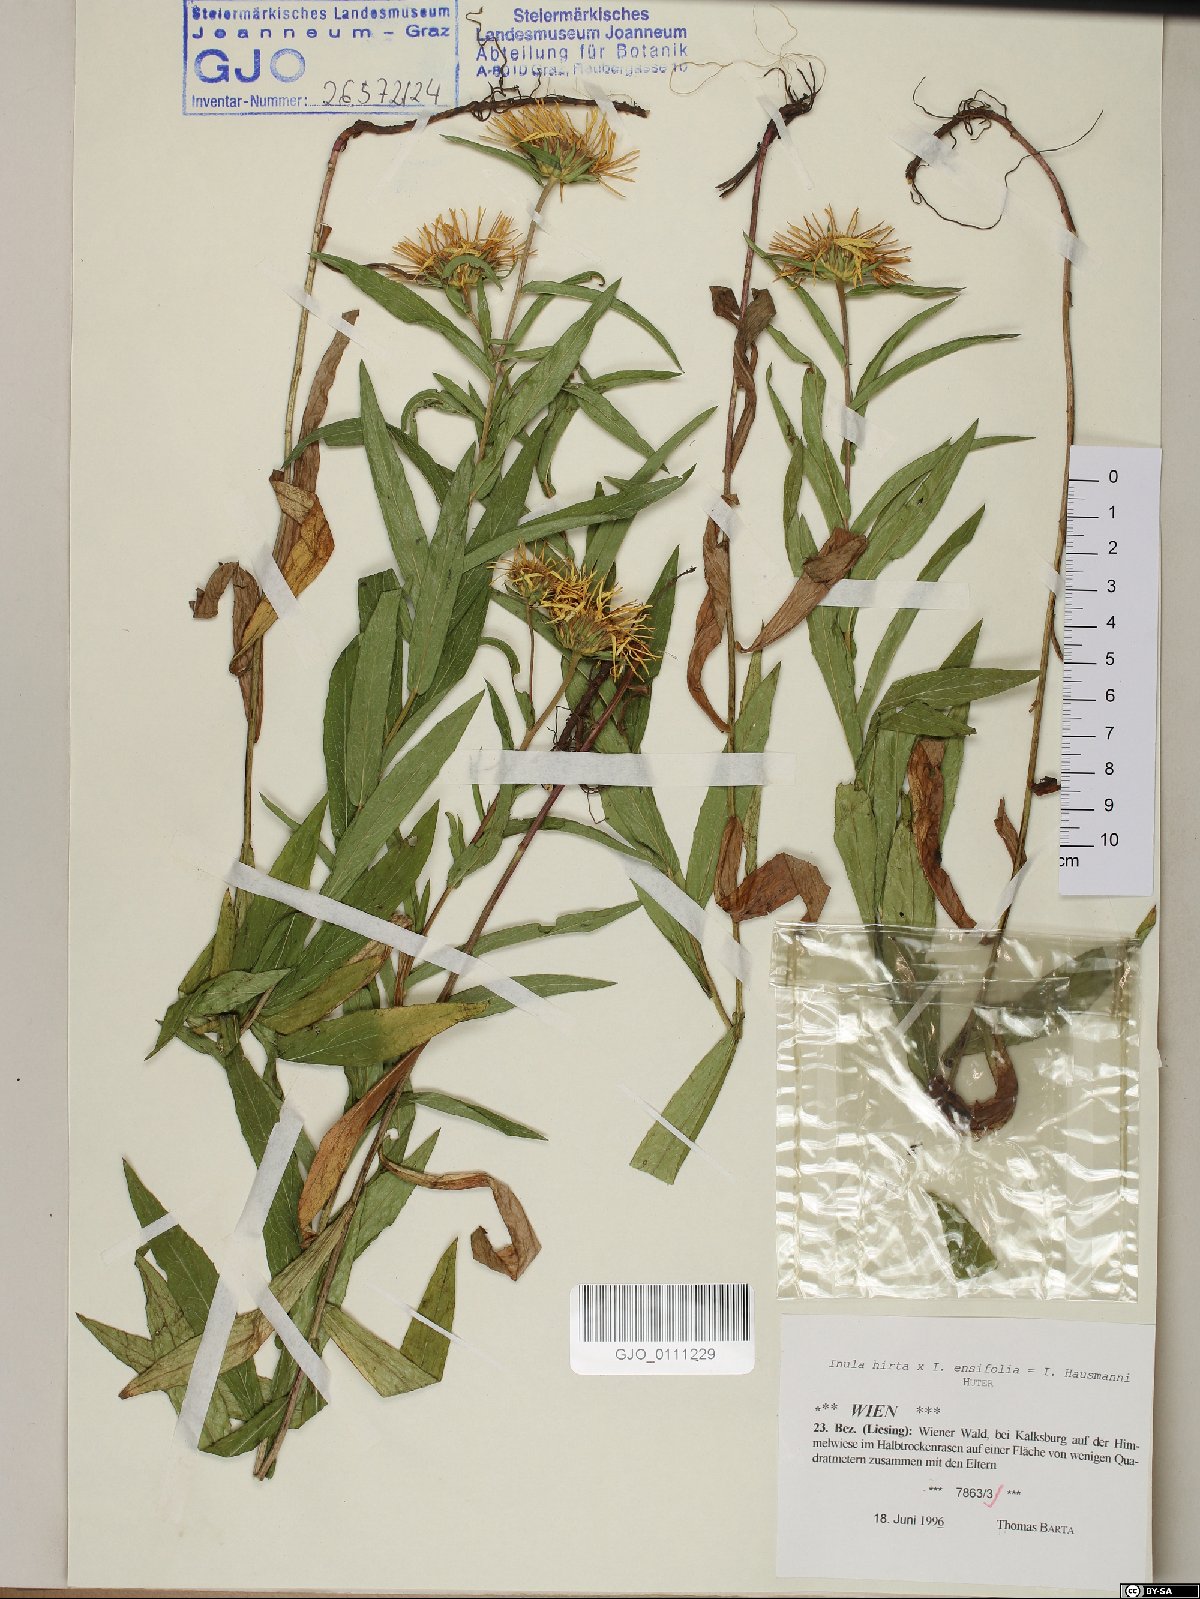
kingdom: Plantae
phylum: Tracheophyta
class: Magnoliopsida
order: Asterales
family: Asteraceae
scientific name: Asteraceae
